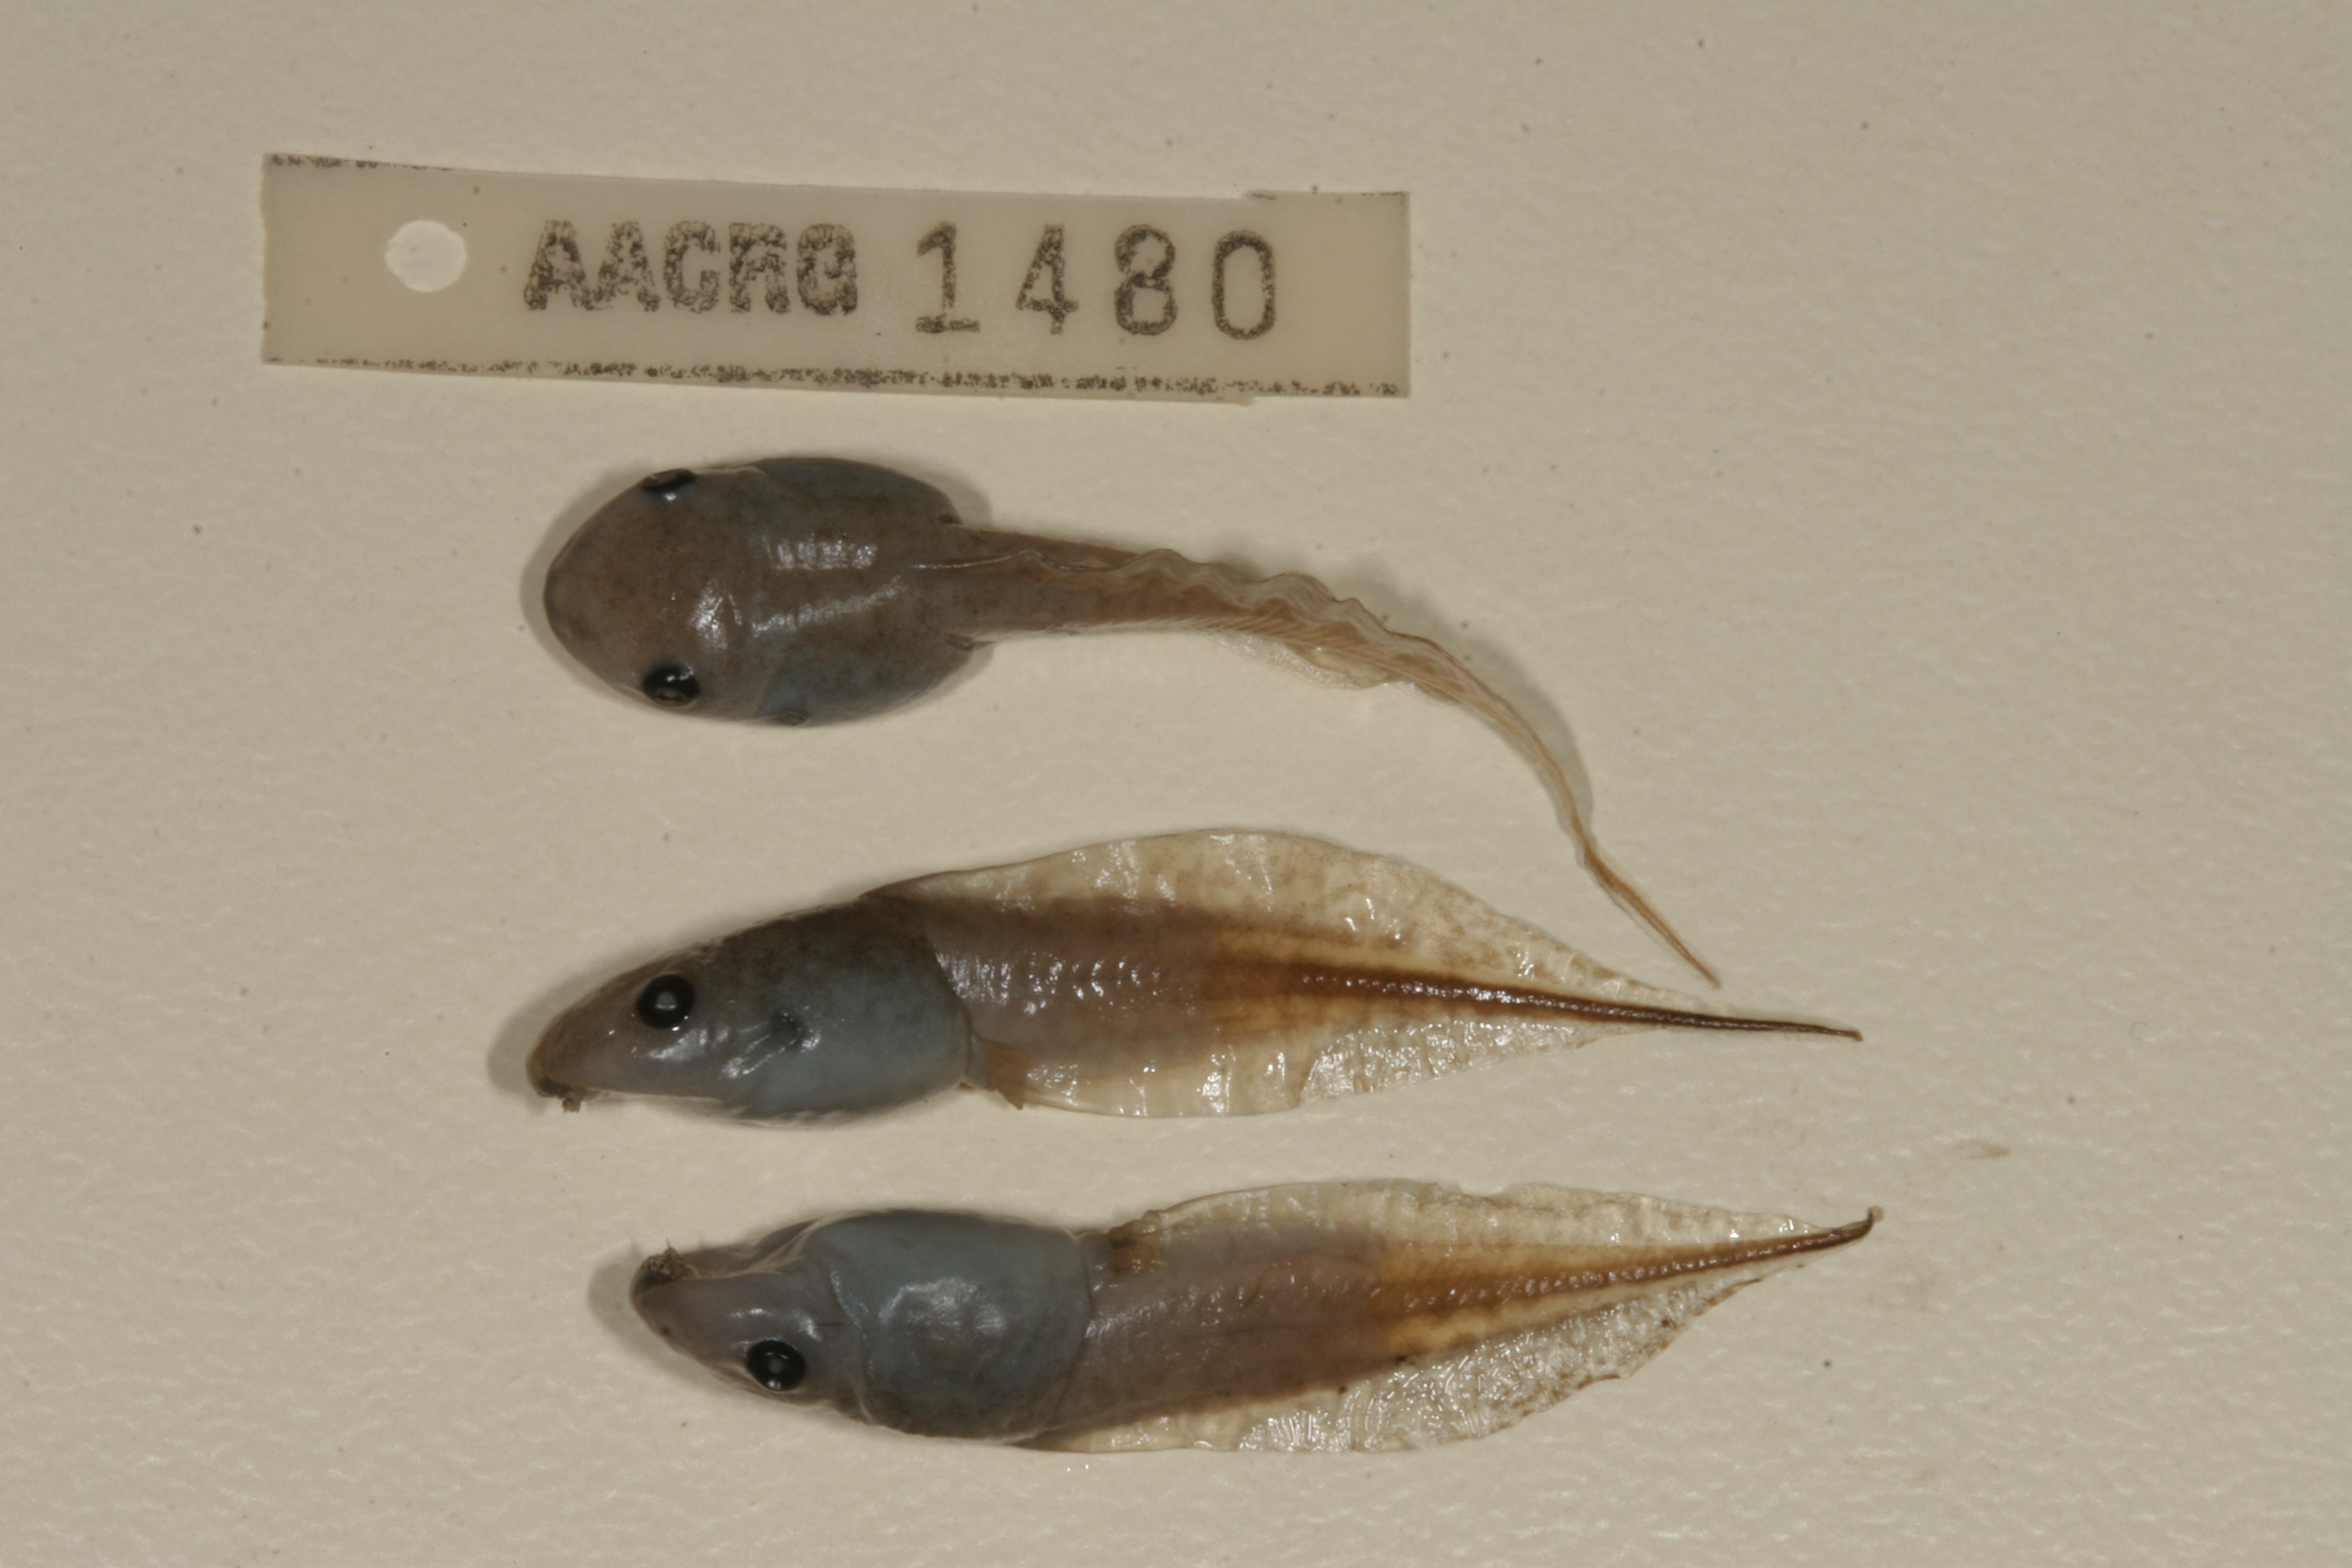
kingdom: Animalia
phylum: Chordata
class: Amphibia
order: Anura
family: Hemisotidae
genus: Hemisus
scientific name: Hemisus marmoratus
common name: Mottled shovel-nosed frog
